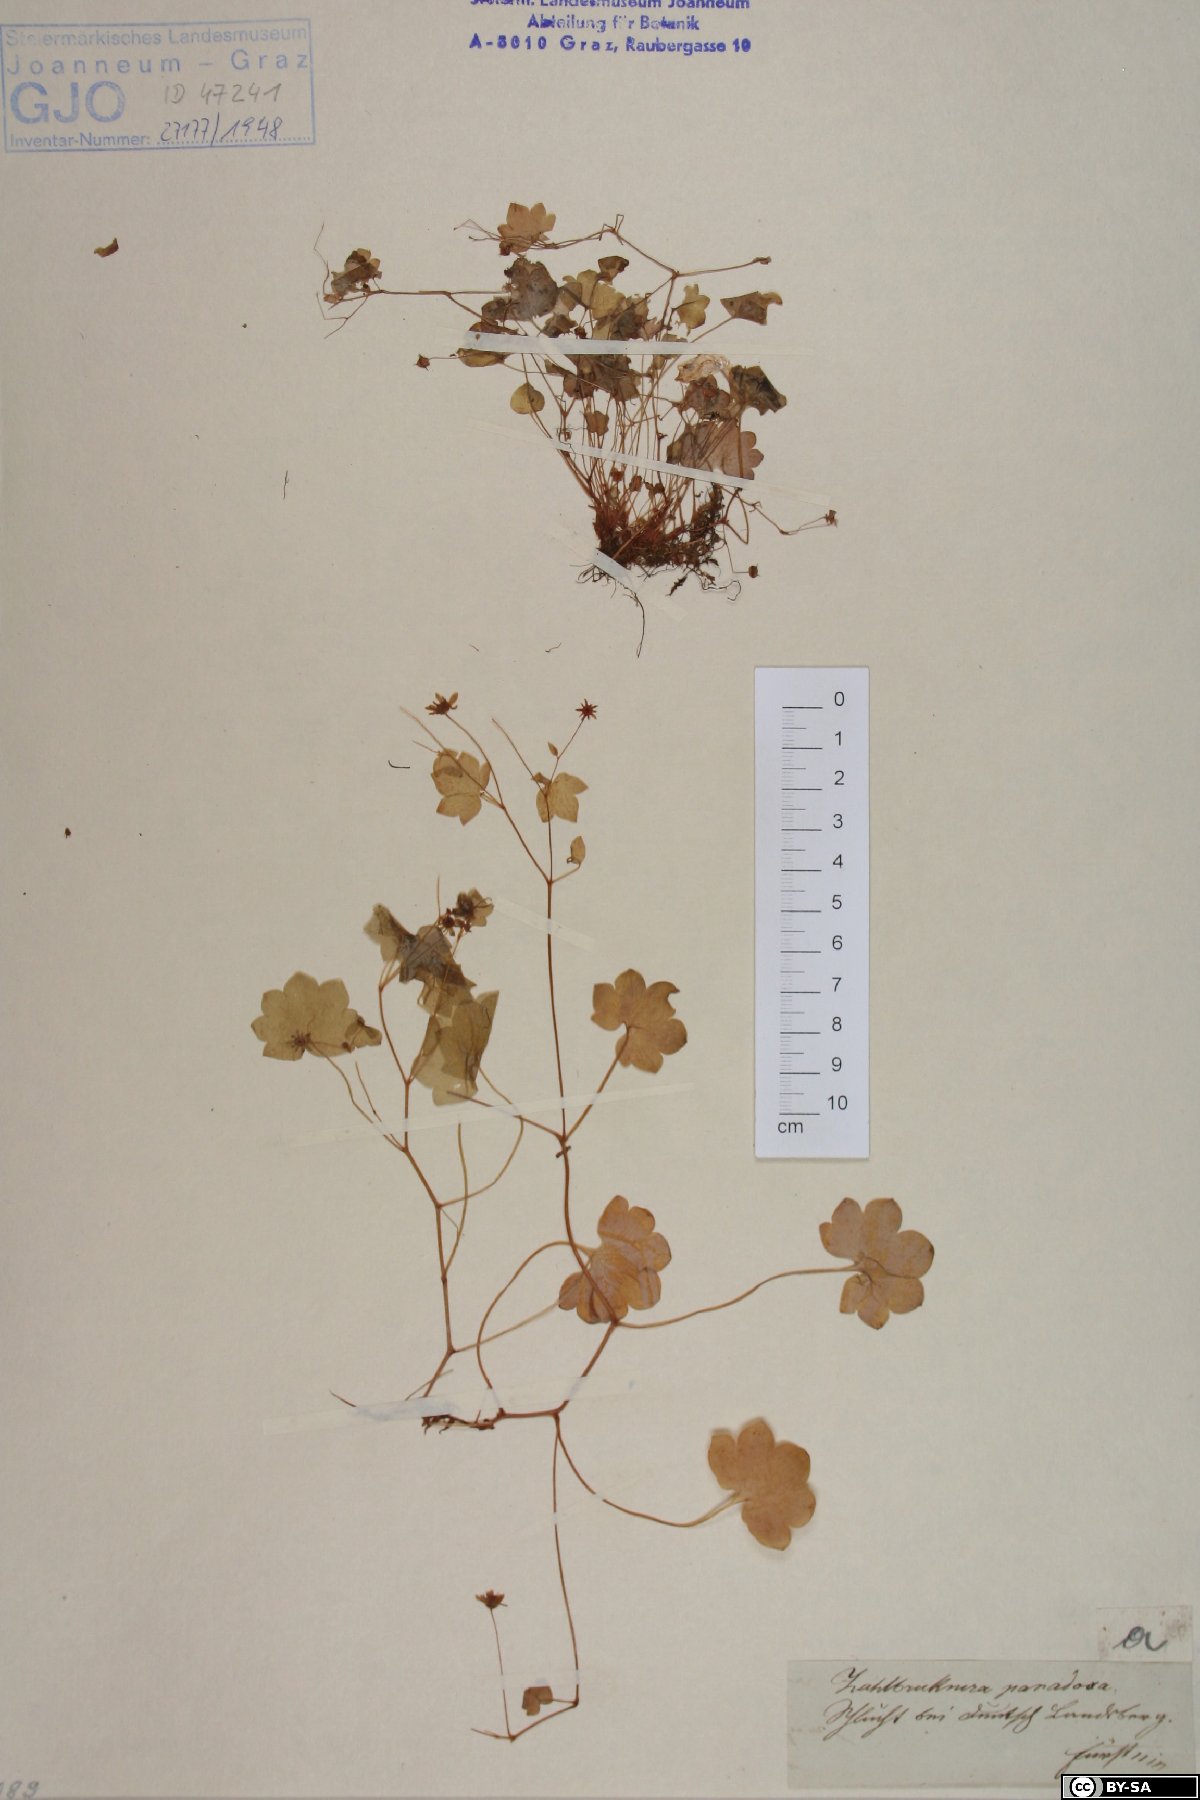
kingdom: Plantae
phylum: Tracheophyta
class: Magnoliopsida
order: Saxifragales
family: Saxifragaceae
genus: Saxifraga
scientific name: Saxifraga paradoxa
